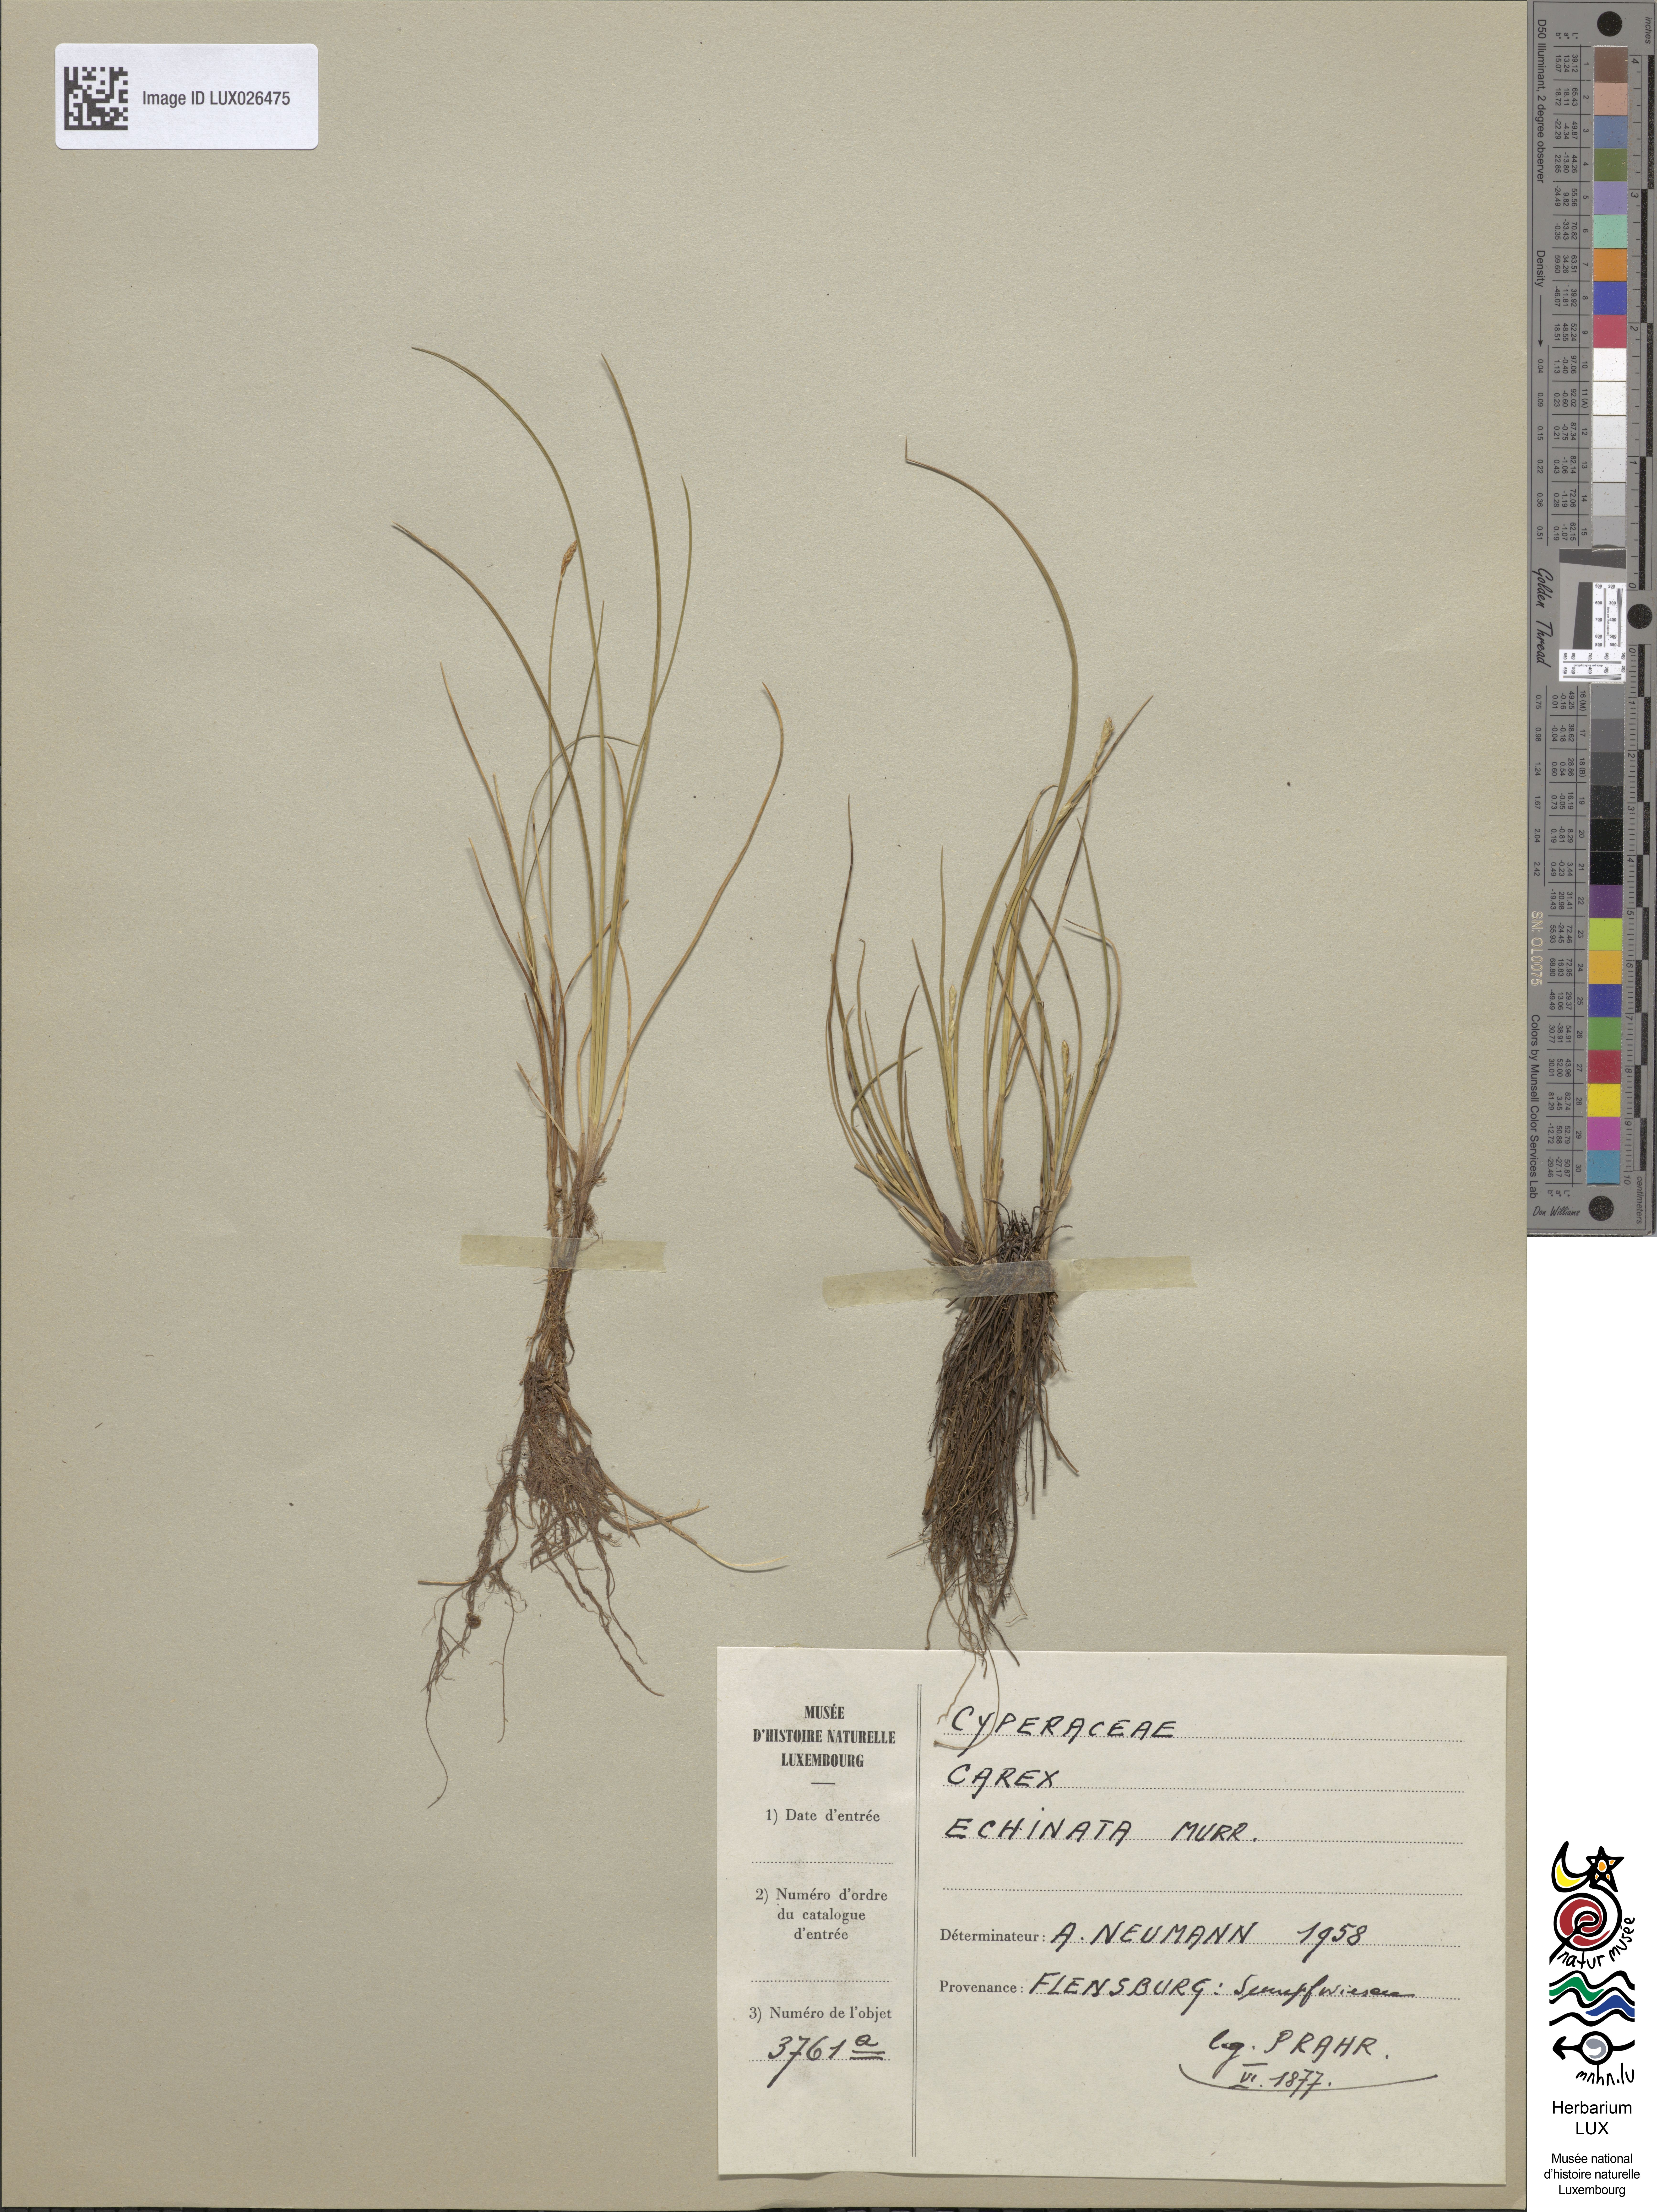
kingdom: Plantae
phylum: Tracheophyta
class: Liliopsida
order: Poales
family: Cyperaceae
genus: Carex
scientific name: Carex echinata
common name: Star sedge
